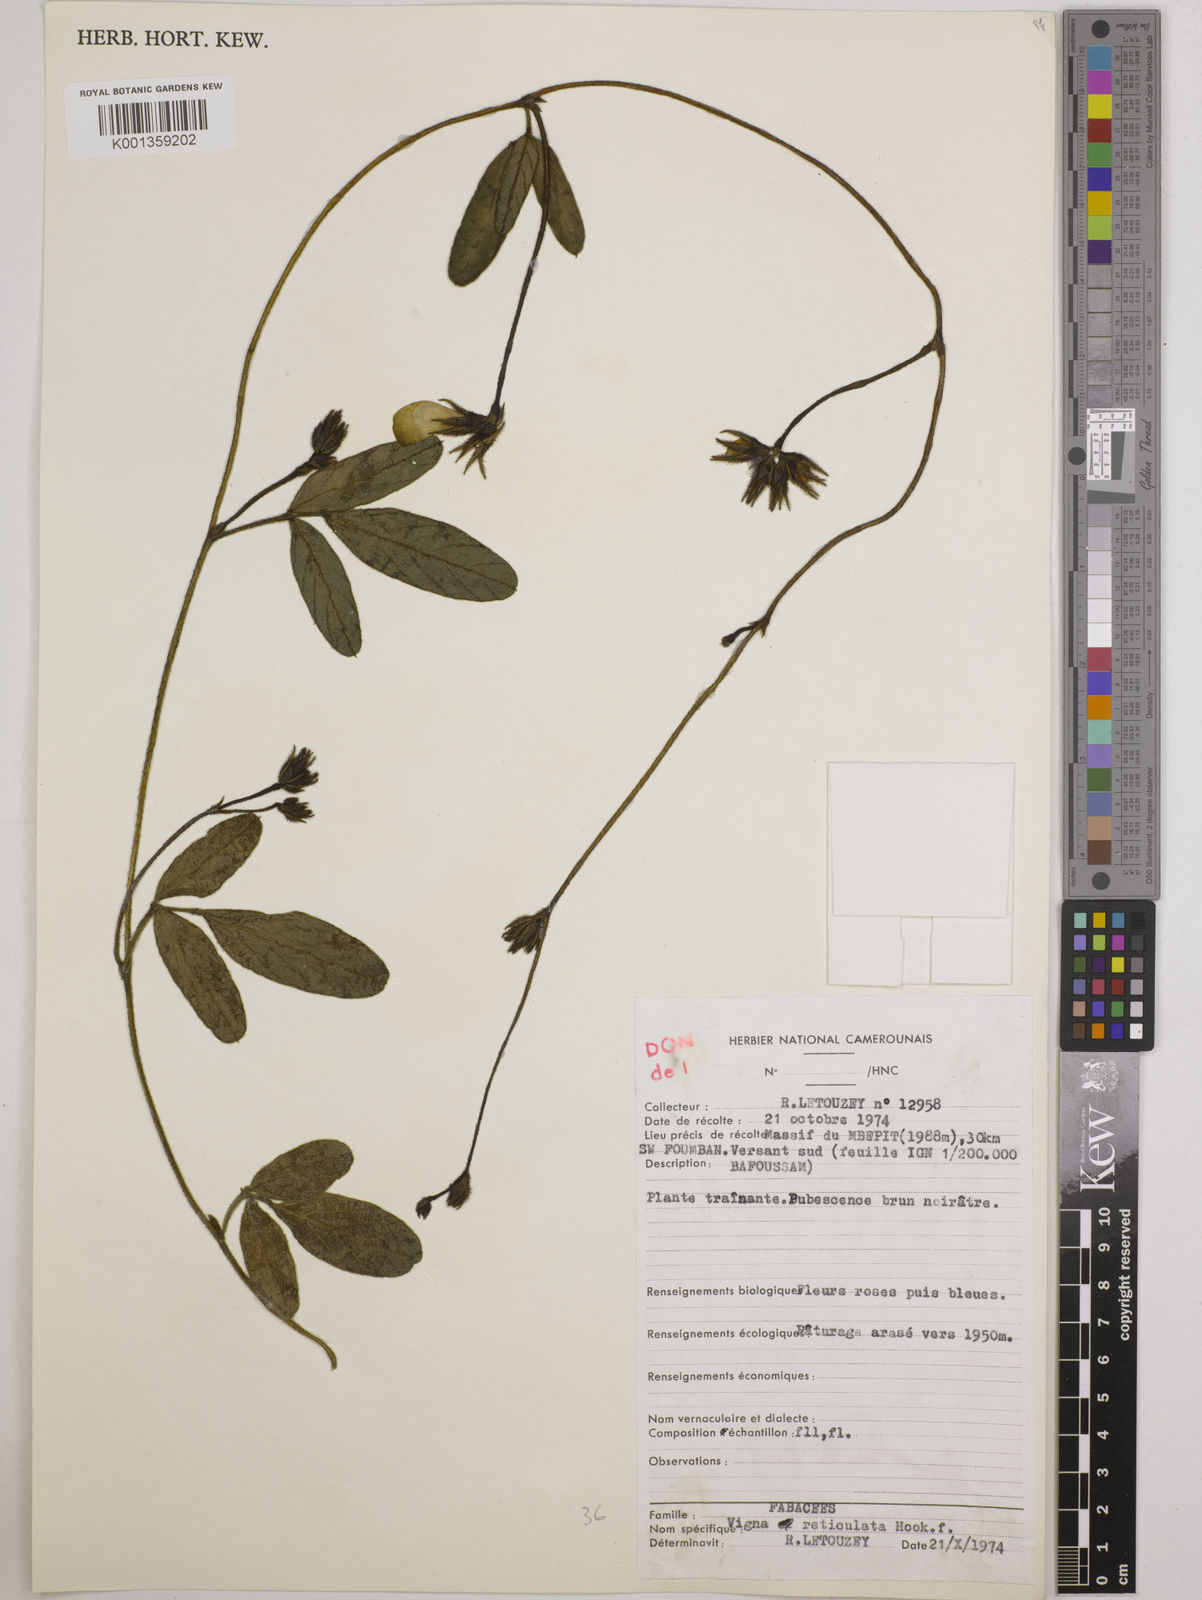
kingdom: Plantae
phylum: Tracheophyta
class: Magnoliopsida
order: Fabales
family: Fabaceae
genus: Vigna
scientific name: Vigna reticulata
